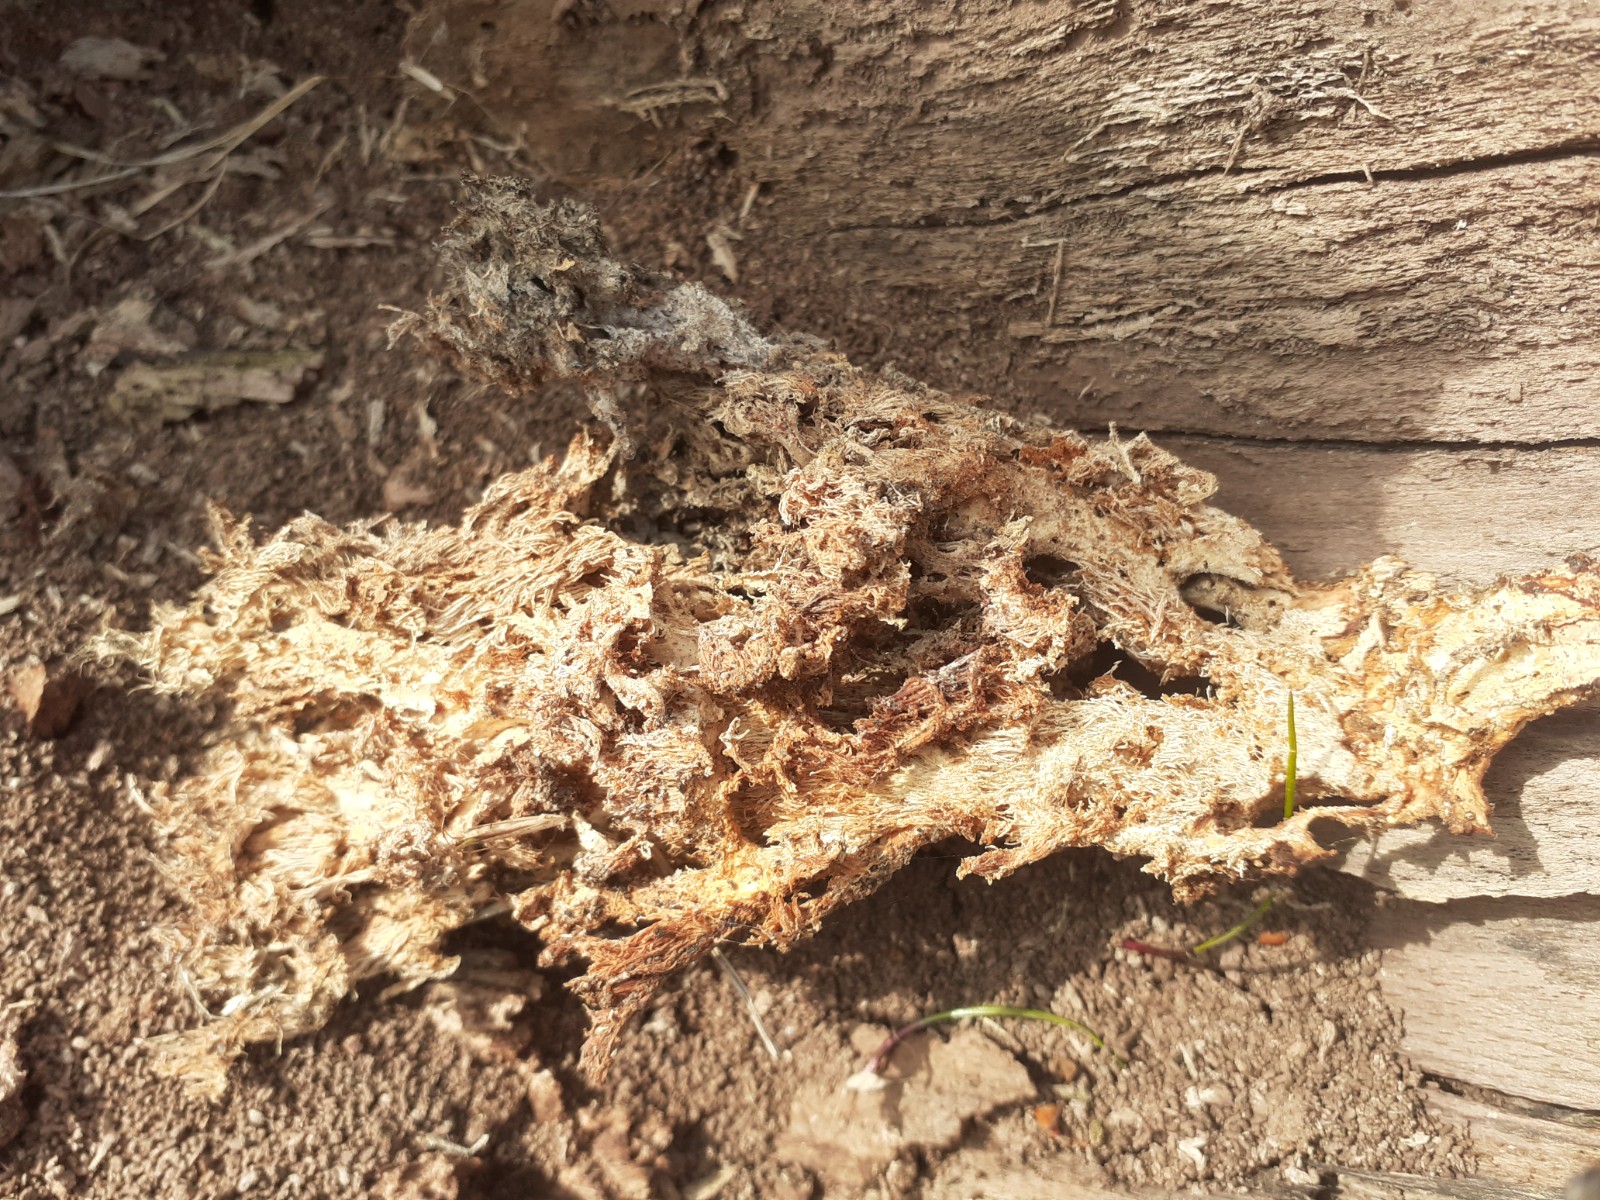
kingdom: Fungi
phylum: Basidiomycota
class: Agaricomycetes
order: Russulales
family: Hericiaceae
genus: Hericium
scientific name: Hericium coralloides
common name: koralpigsvamp
